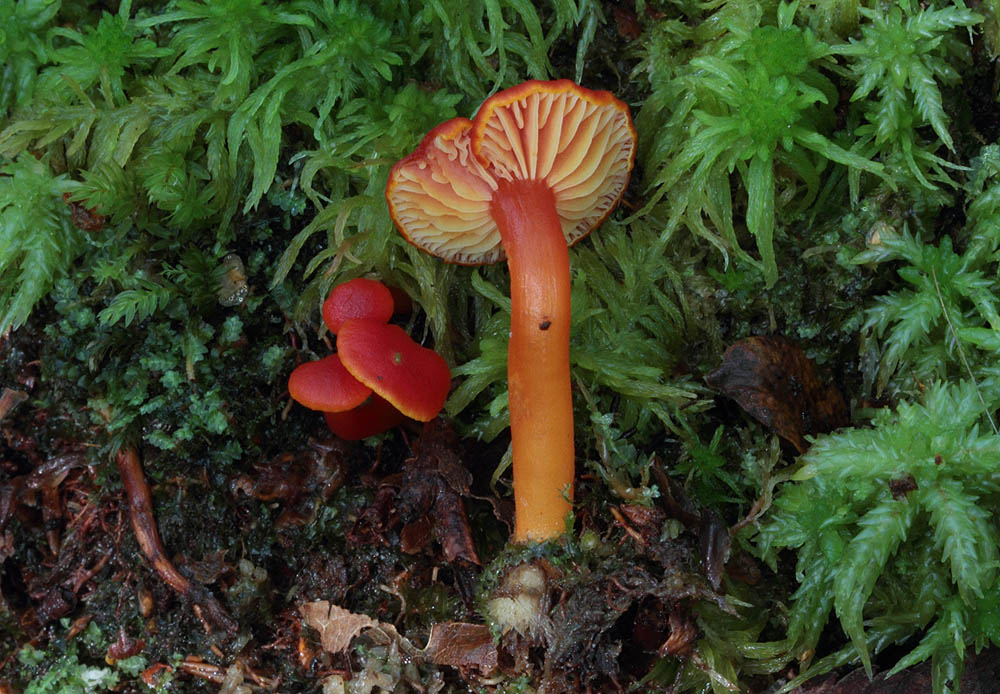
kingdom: Fungi
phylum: Basidiomycota
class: Agaricomycetes
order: Agaricales
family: Hygrophoraceae
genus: Hygrocybe
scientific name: Hygrocybe helobia
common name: hvidløgs-vokshat
